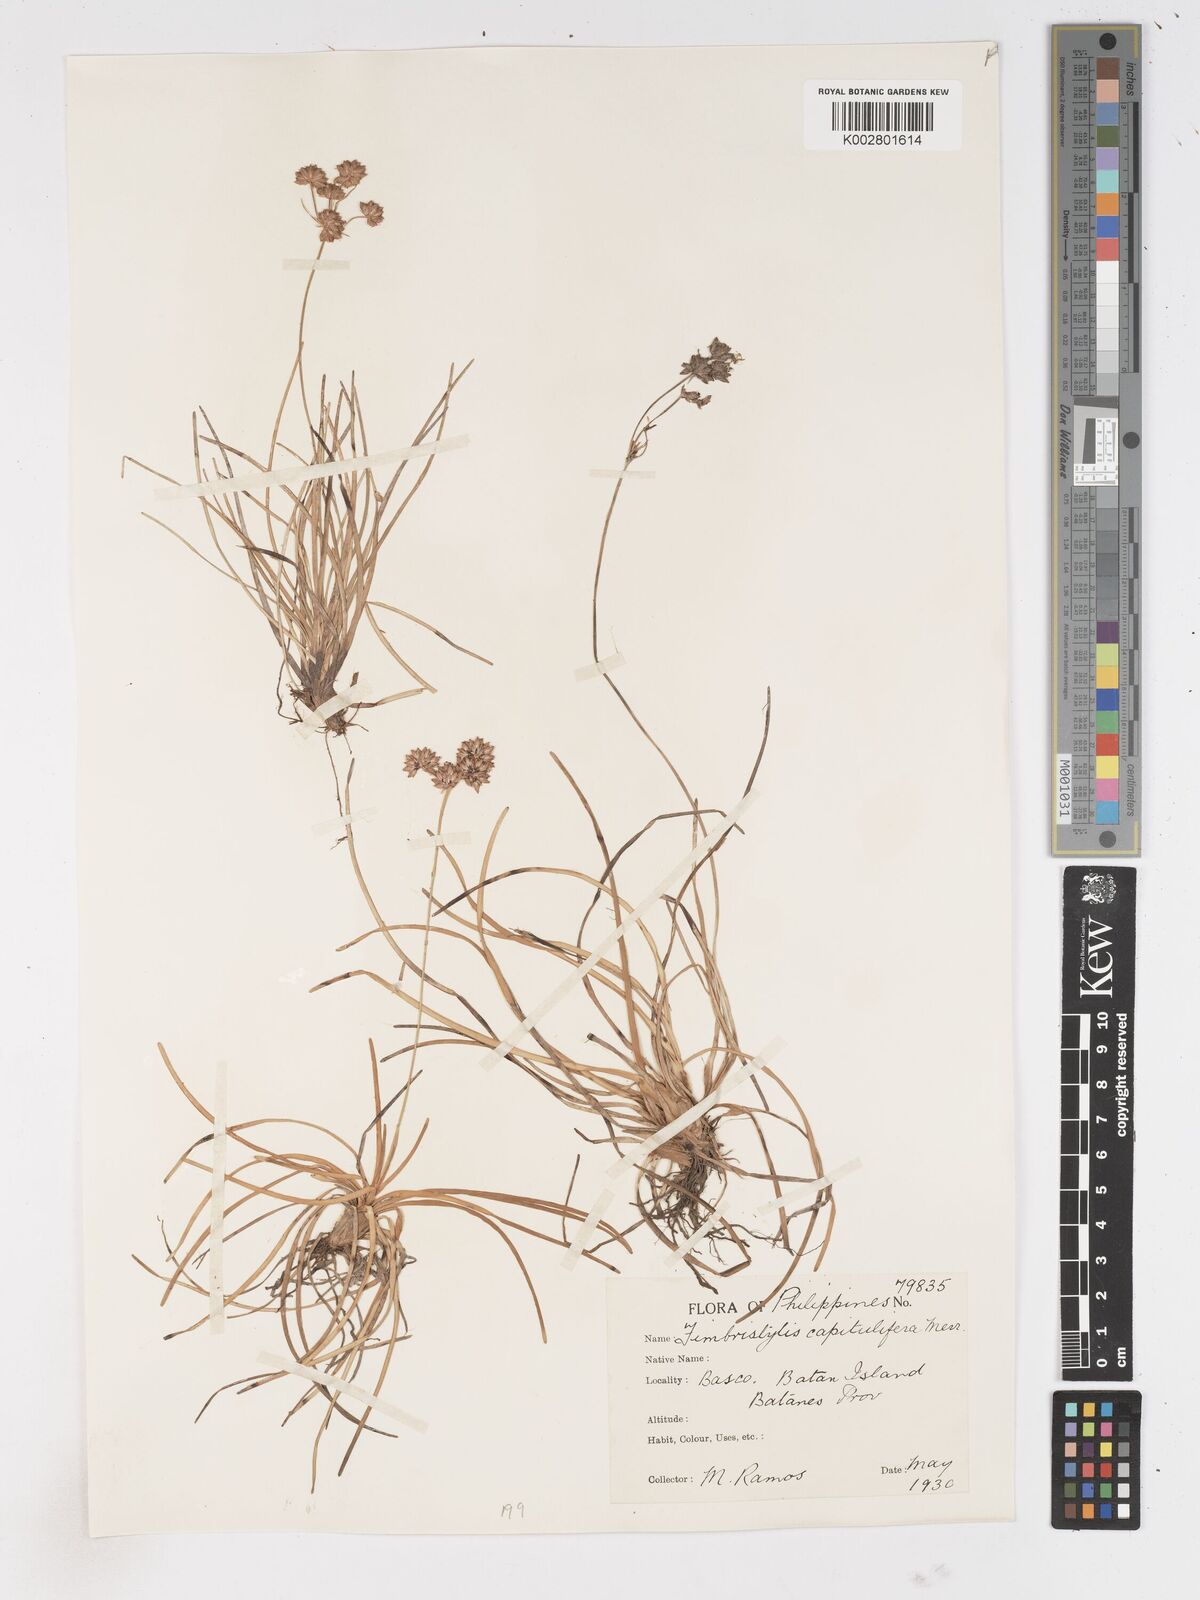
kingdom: Plantae
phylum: Tracheophyta
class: Liliopsida
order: Poales
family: Cyperaceae
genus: Fimbristylis
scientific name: Fimbristylis cymosa
